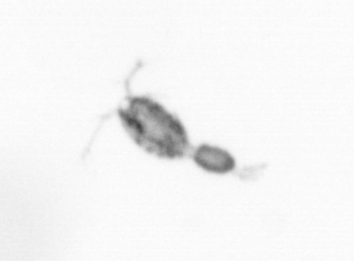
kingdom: Animalia
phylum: Arthropoda
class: Copepoda
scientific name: Copepoda
